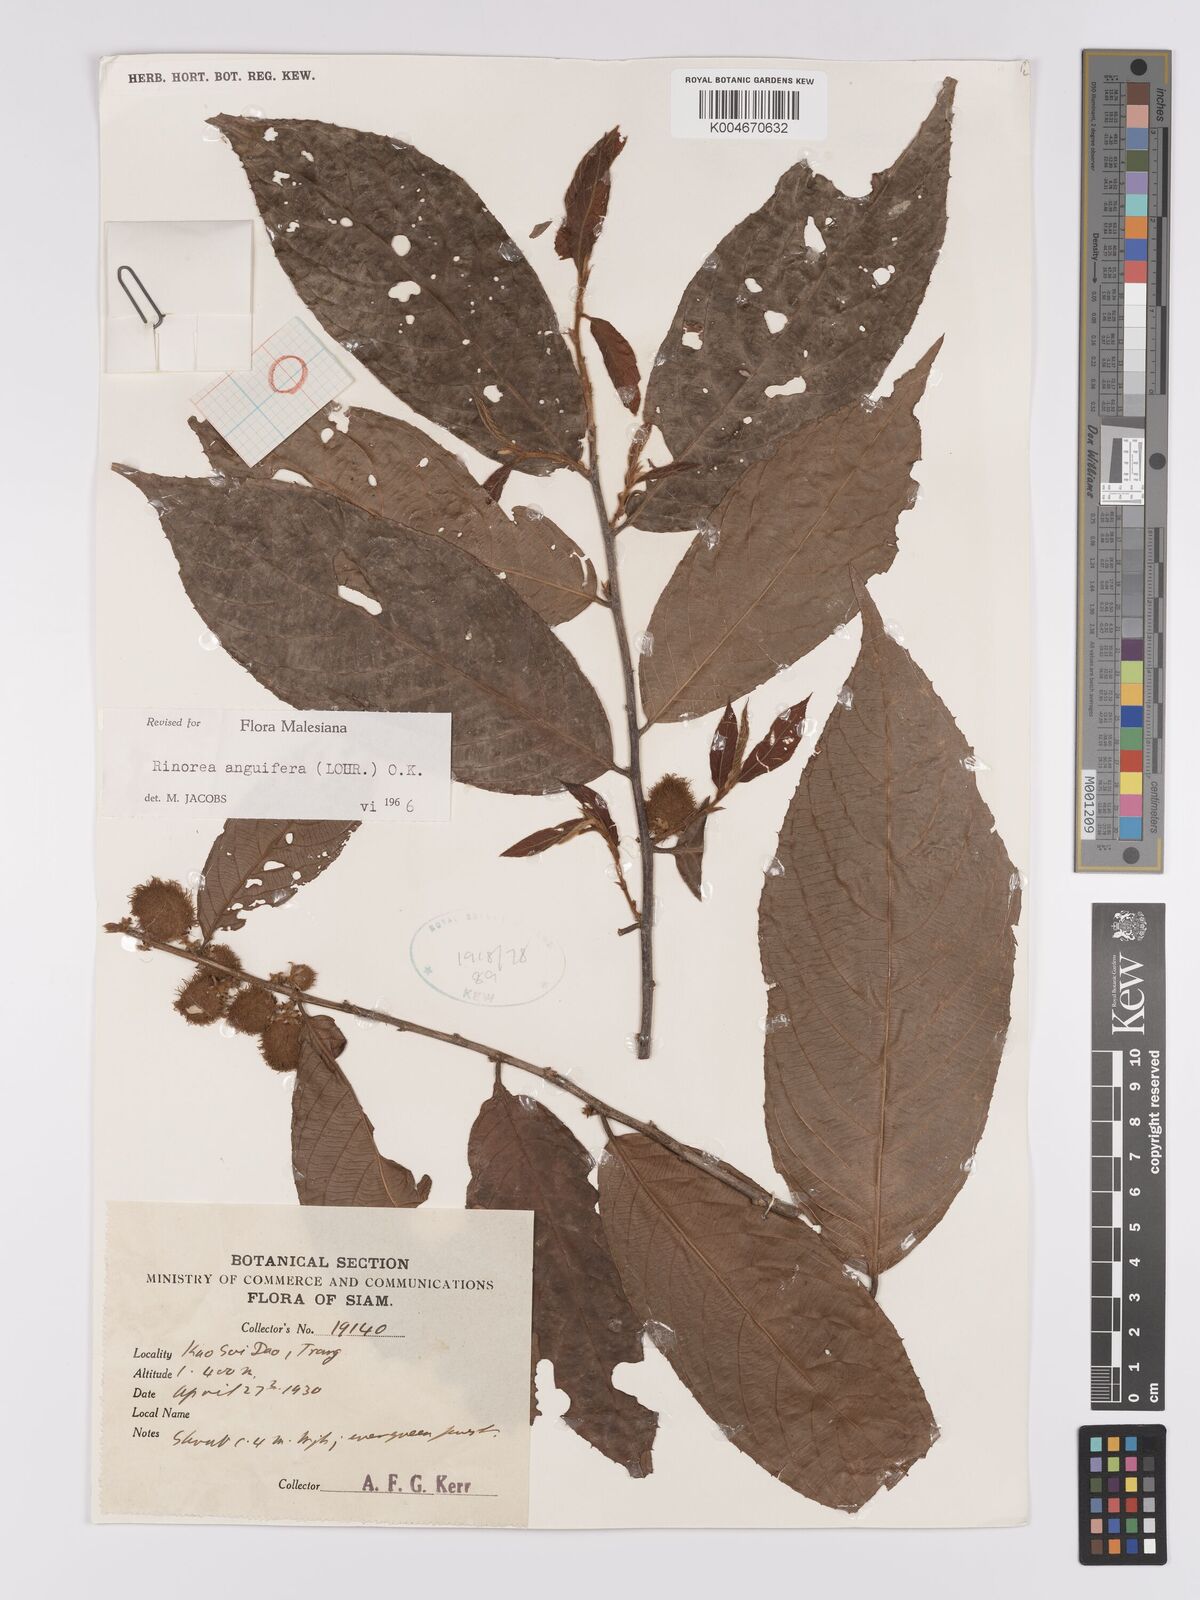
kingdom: Plantae
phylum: Tracheophyta
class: Magnoliopsida
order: Malpighiales
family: Violaceae
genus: Rinorea
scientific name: Rinorea anguifera
